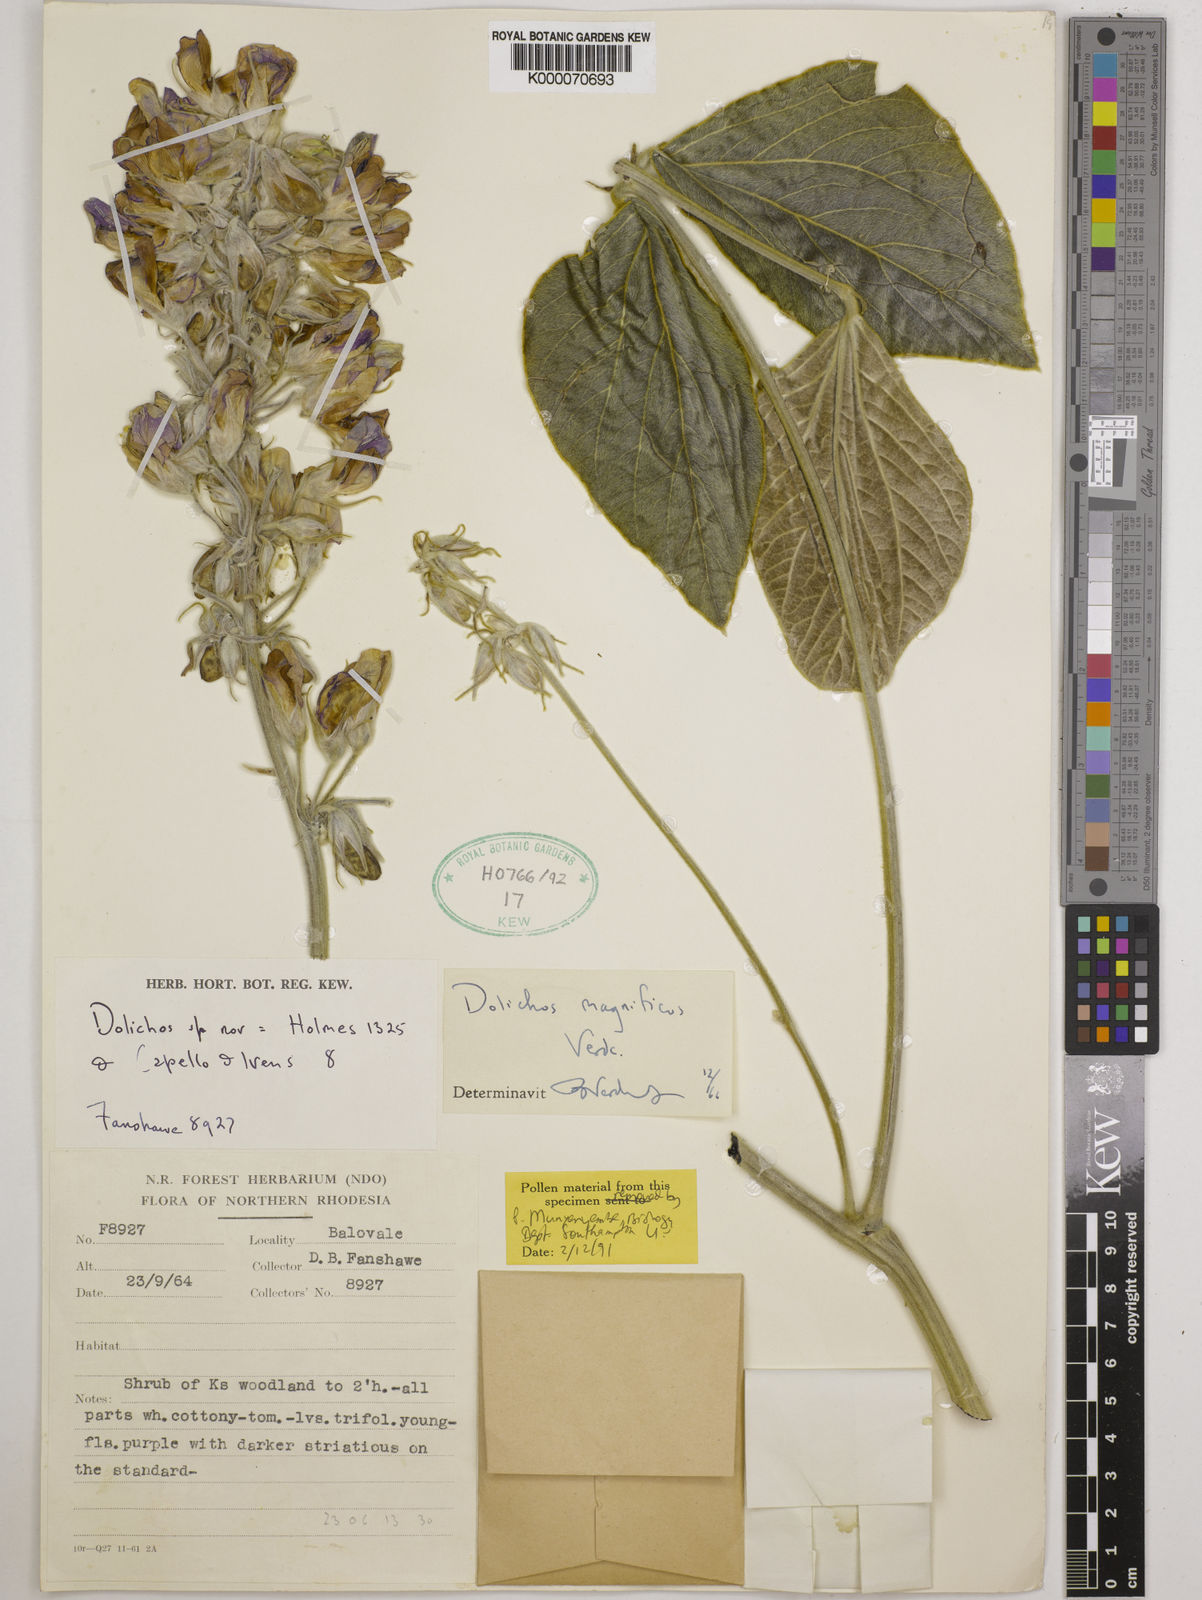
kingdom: Plantae
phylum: Tracheophyta
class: Magnoliopsida
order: Fabales
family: Fabaceae
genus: Dolichos
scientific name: Dolichos magnificus
